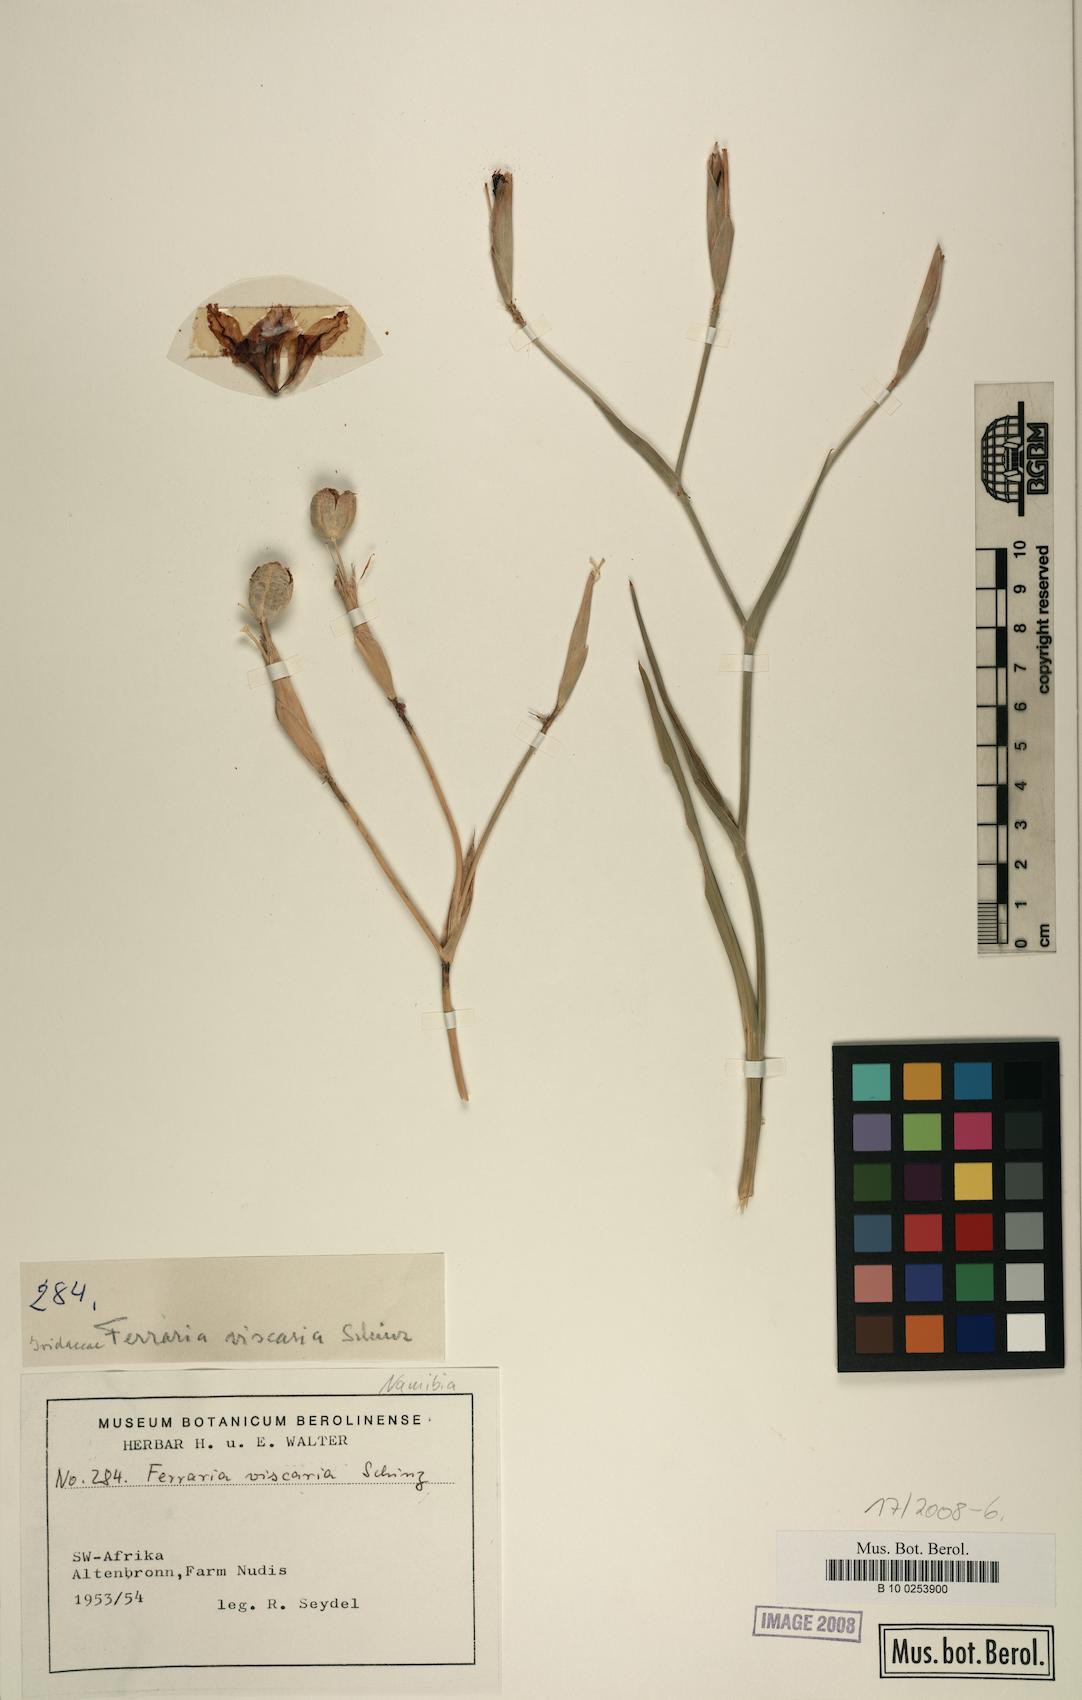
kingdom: Plantae
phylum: Tracheophyta
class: Liliopsida
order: Asparagales
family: Iridaceae
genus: Ferraria
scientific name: Ferraria glutinosa
